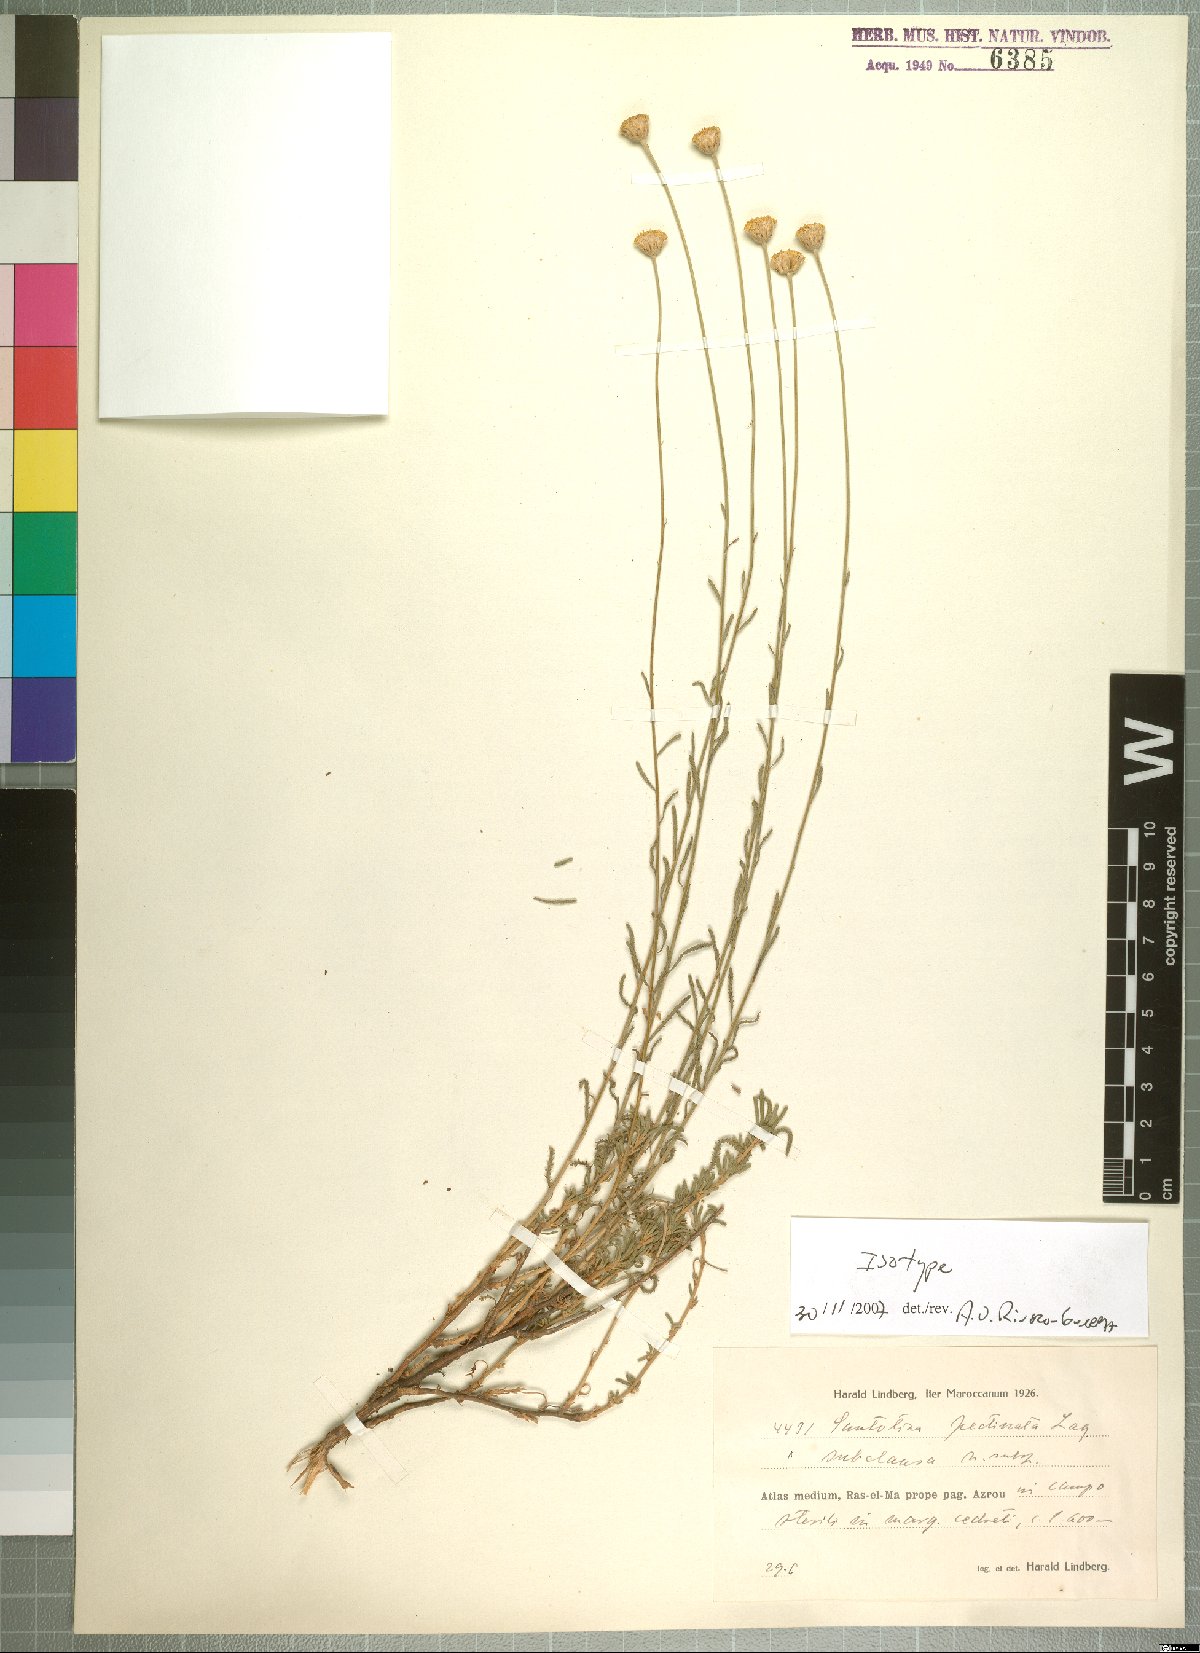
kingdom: Plantae
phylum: Tracheophyta
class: Magnoliopsida
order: Asterales
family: Asteraceae
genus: Santolina
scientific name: Santolina pectinata
